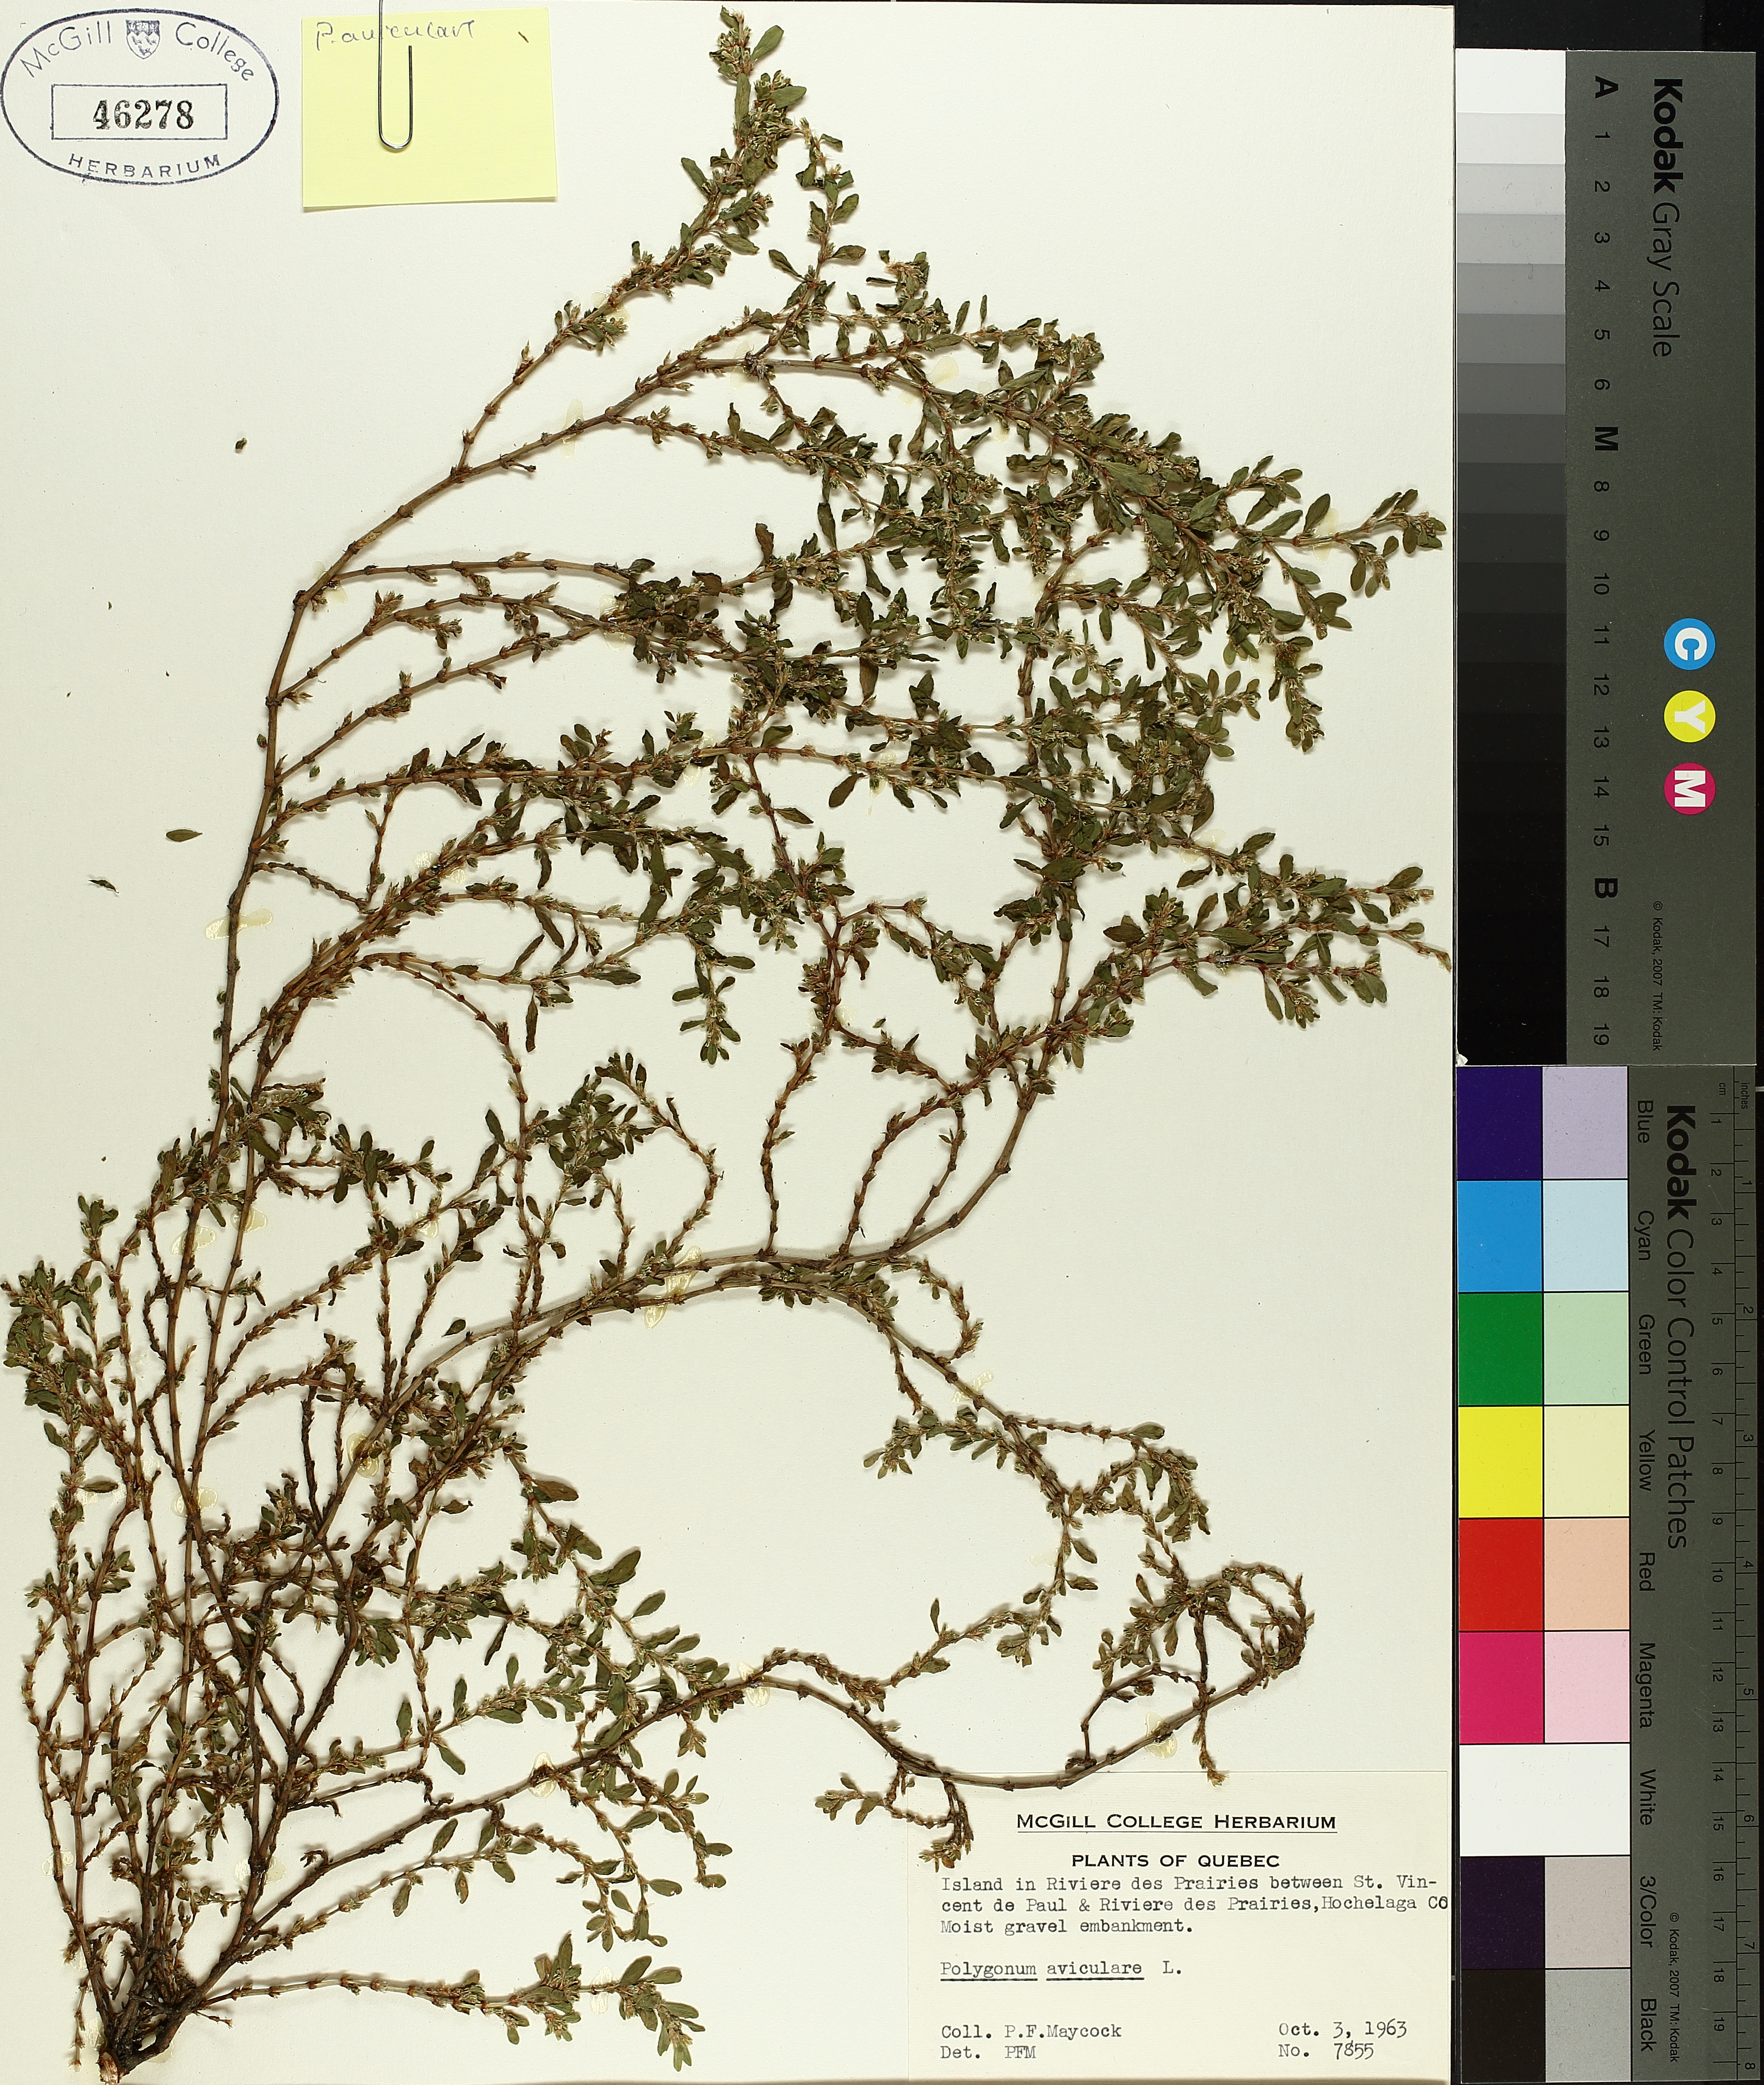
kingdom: Plantae
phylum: Tracheophyta
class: Magnoliopsida
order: Caryophyllales
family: Polygonaceae
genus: Polygonum
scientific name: Polygonum aviculare
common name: Prostrate knotweed
